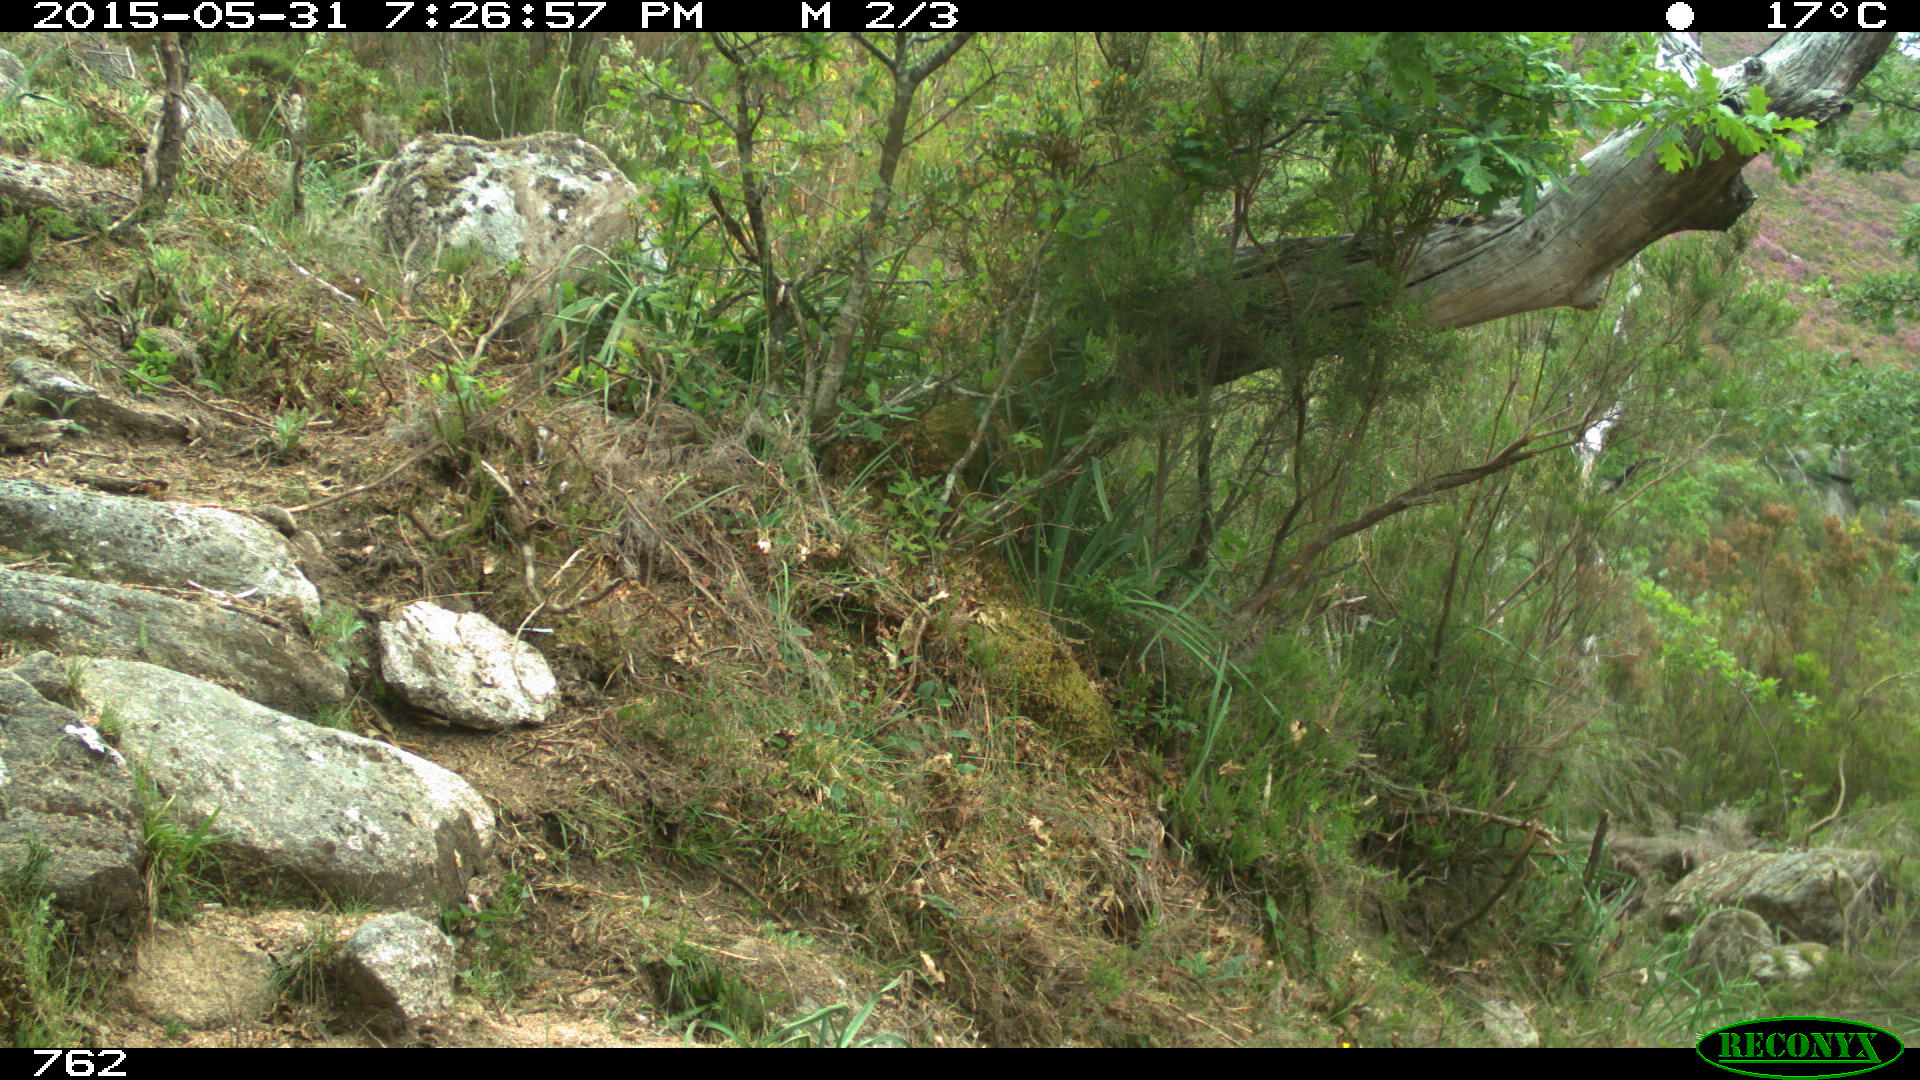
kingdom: Animalia
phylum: Chordata
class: Mammalia
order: Artiodactyla
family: Bovidae
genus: Bos
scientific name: Bos taurus
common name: Domesticated cattle
